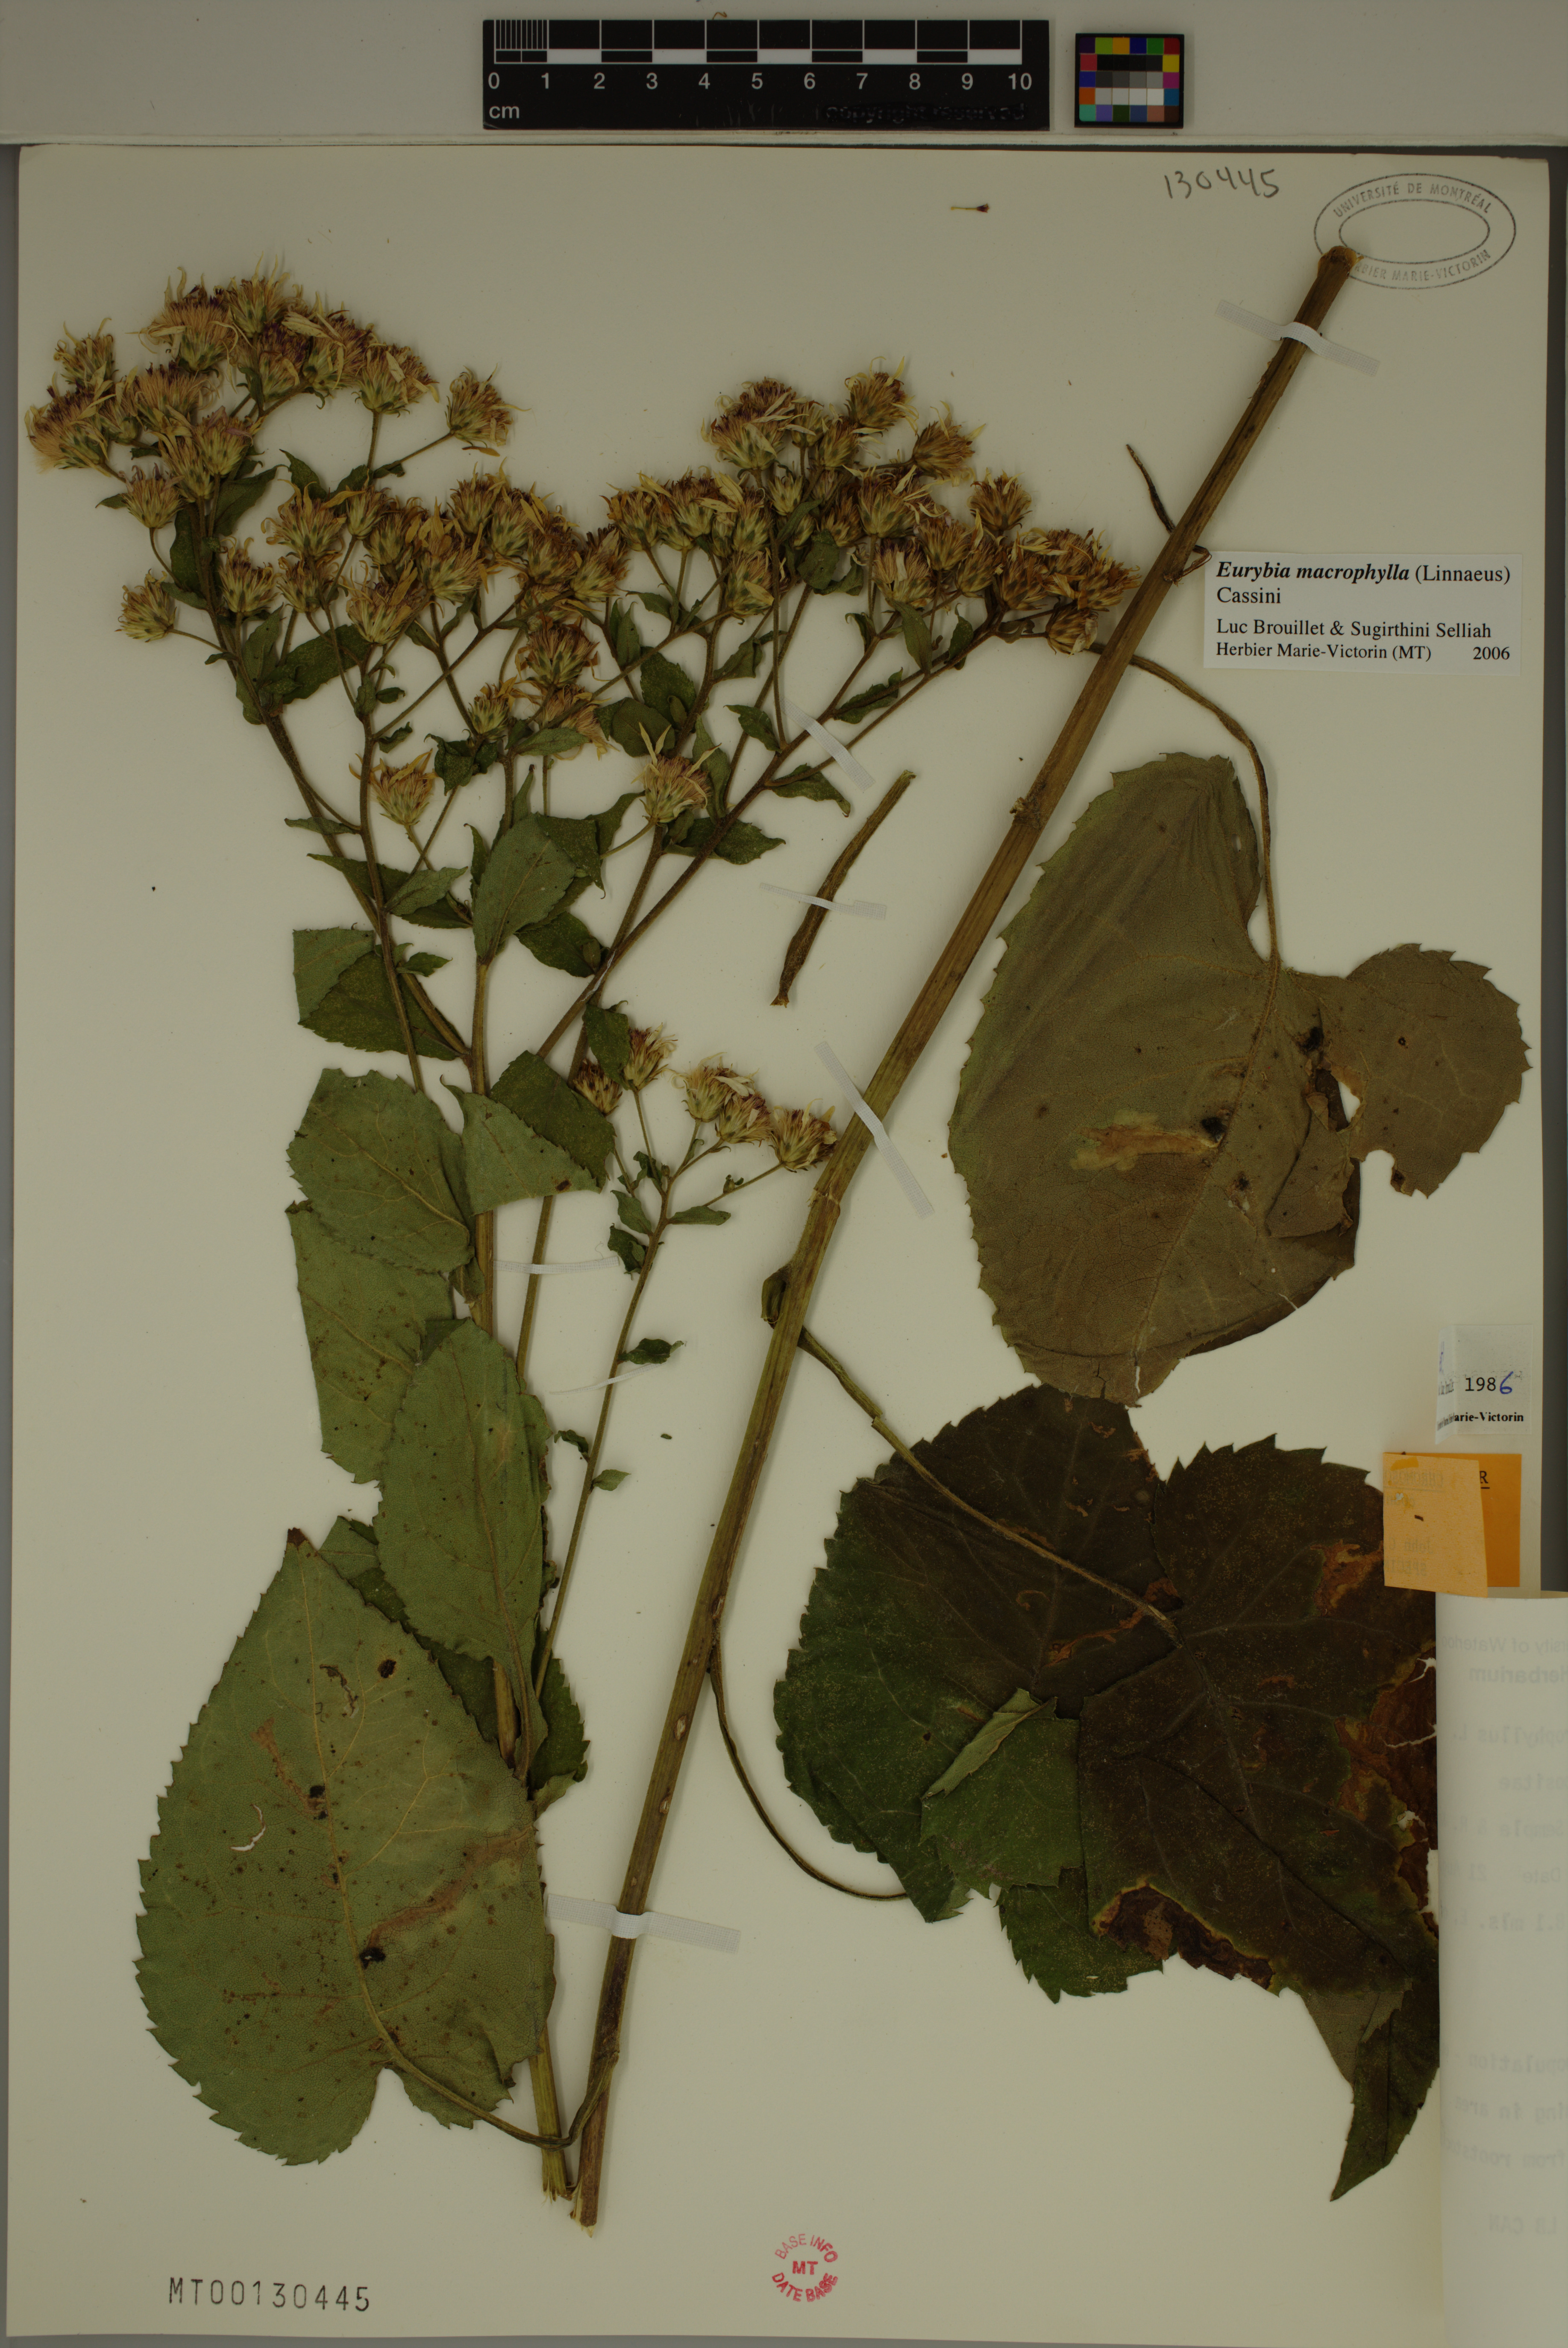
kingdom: Plantae
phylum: Tracheophyta
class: Magnoliopsida
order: Asterales
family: Asteraceae
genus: Eurybia
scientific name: Eurybia macrophylla
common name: Big-leaved aster
